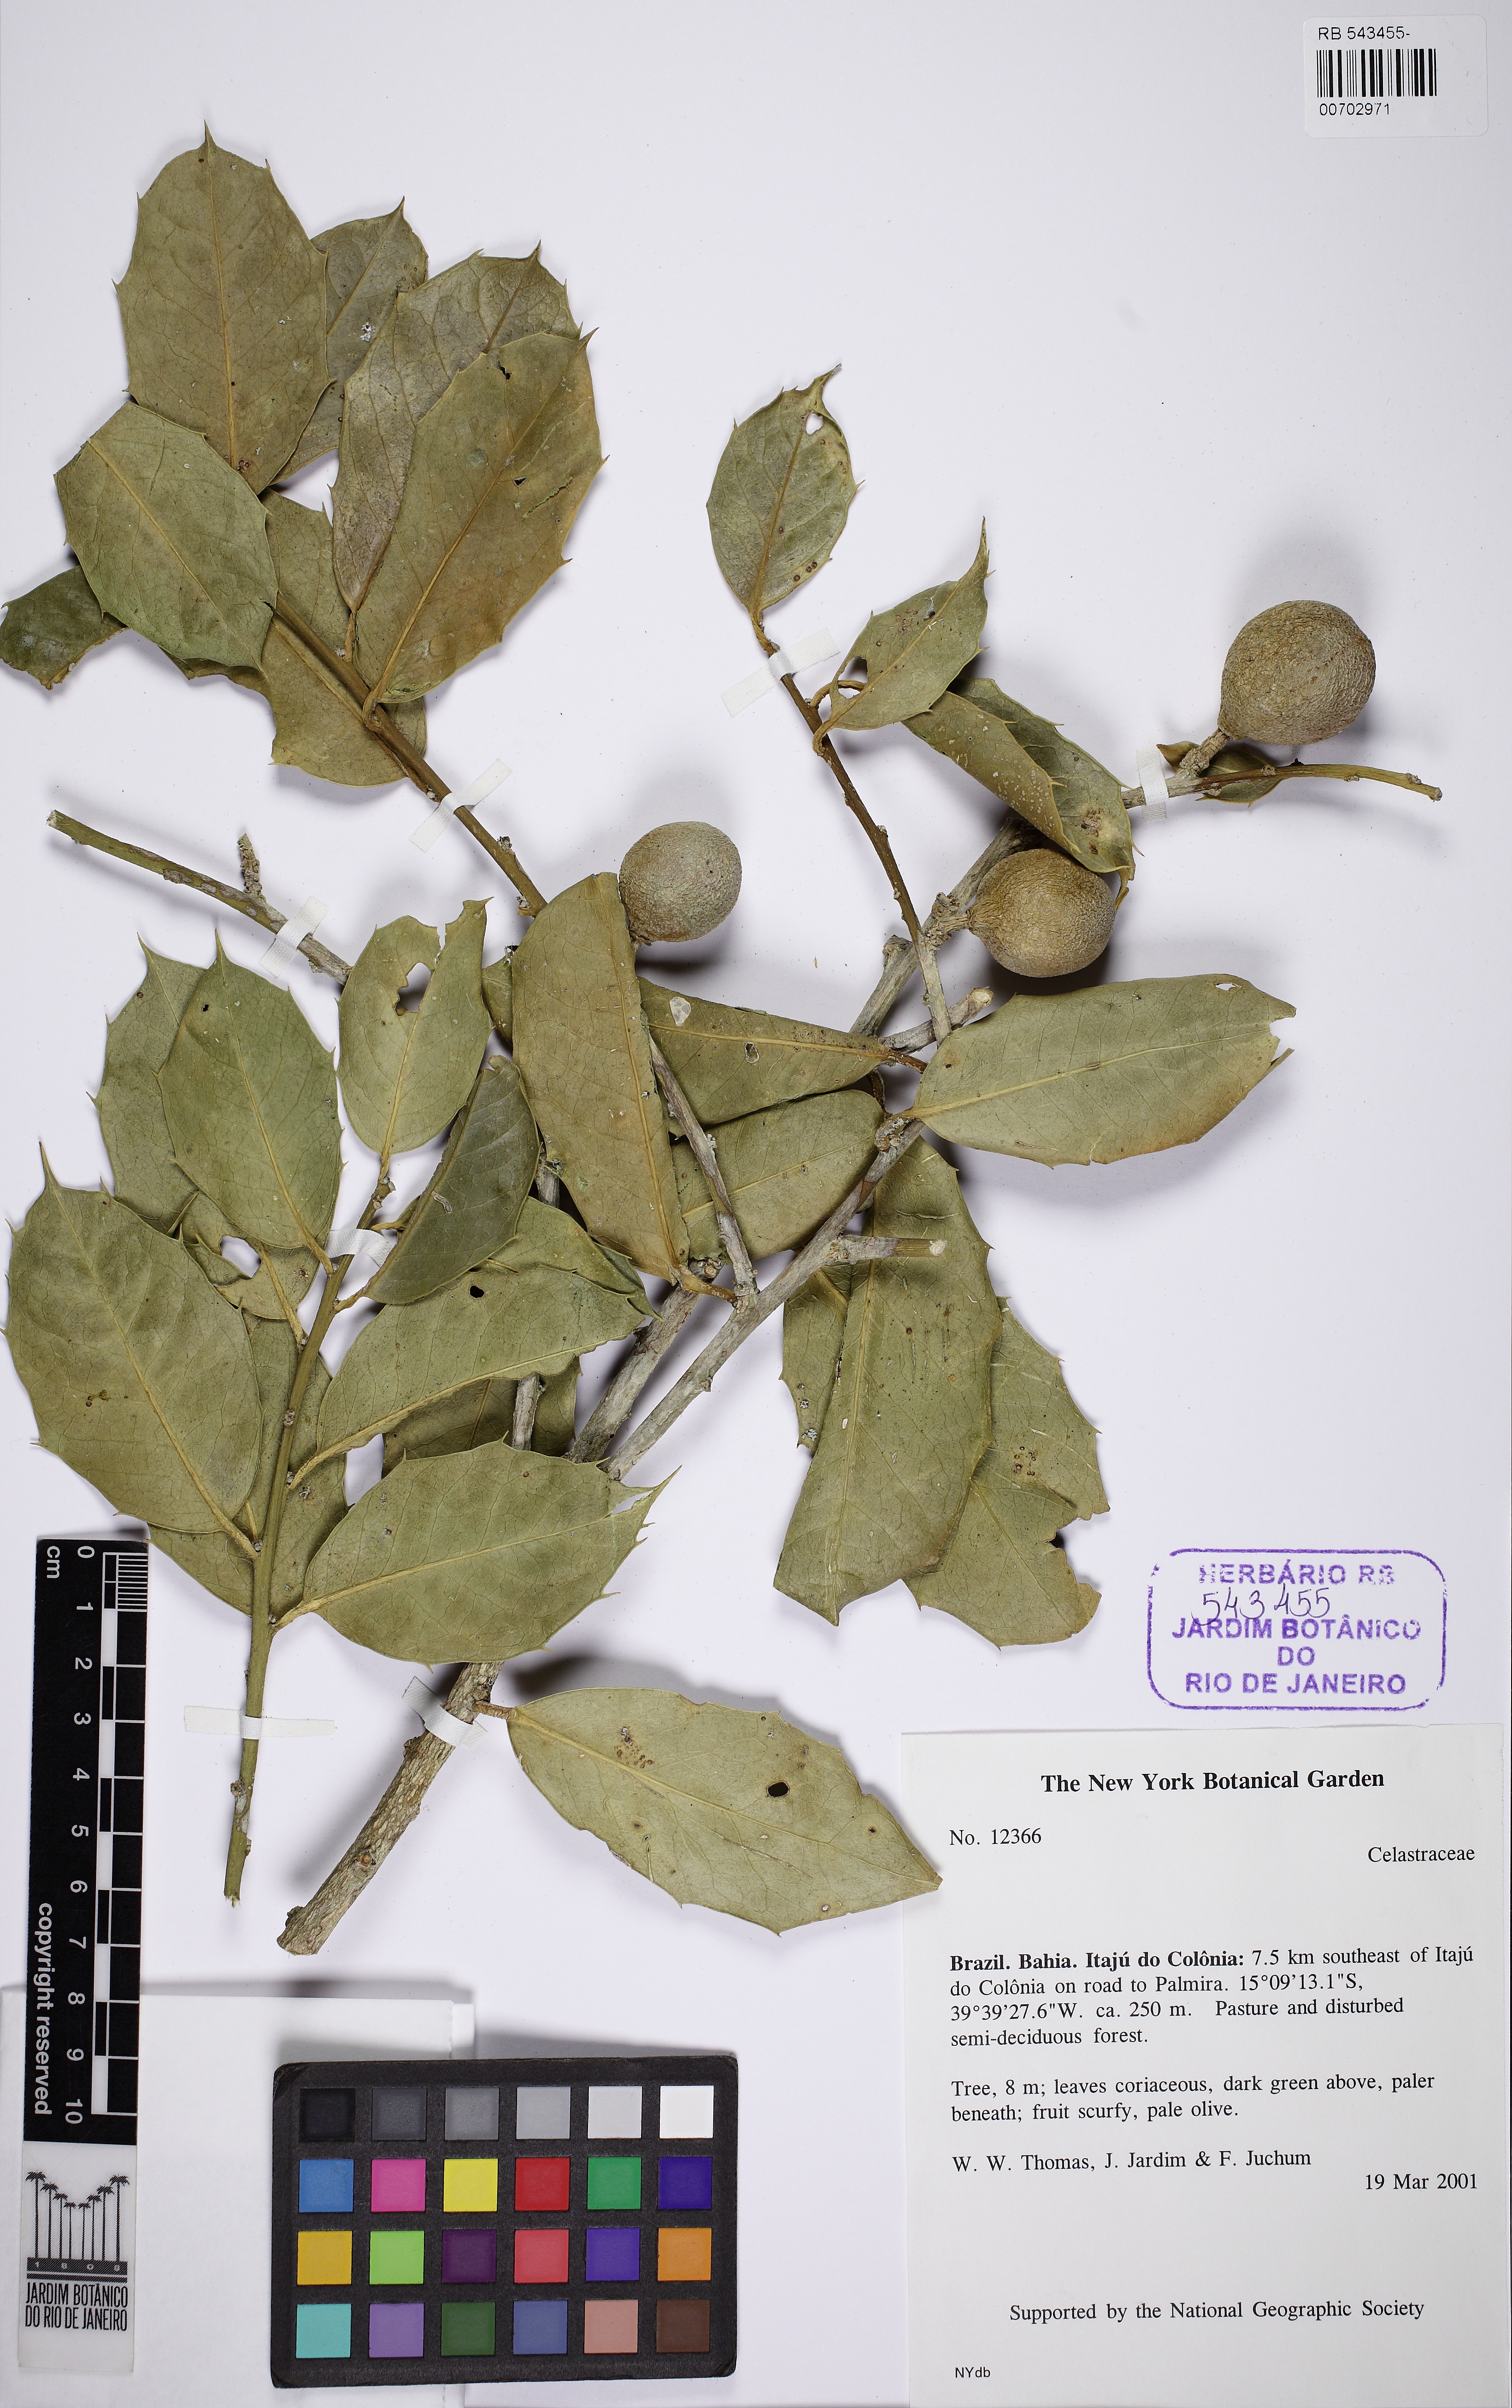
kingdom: Plantae
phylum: Tracheophyta
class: Magnoliopsida
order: Celastrales
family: Celastraceae
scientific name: Celastraceae
